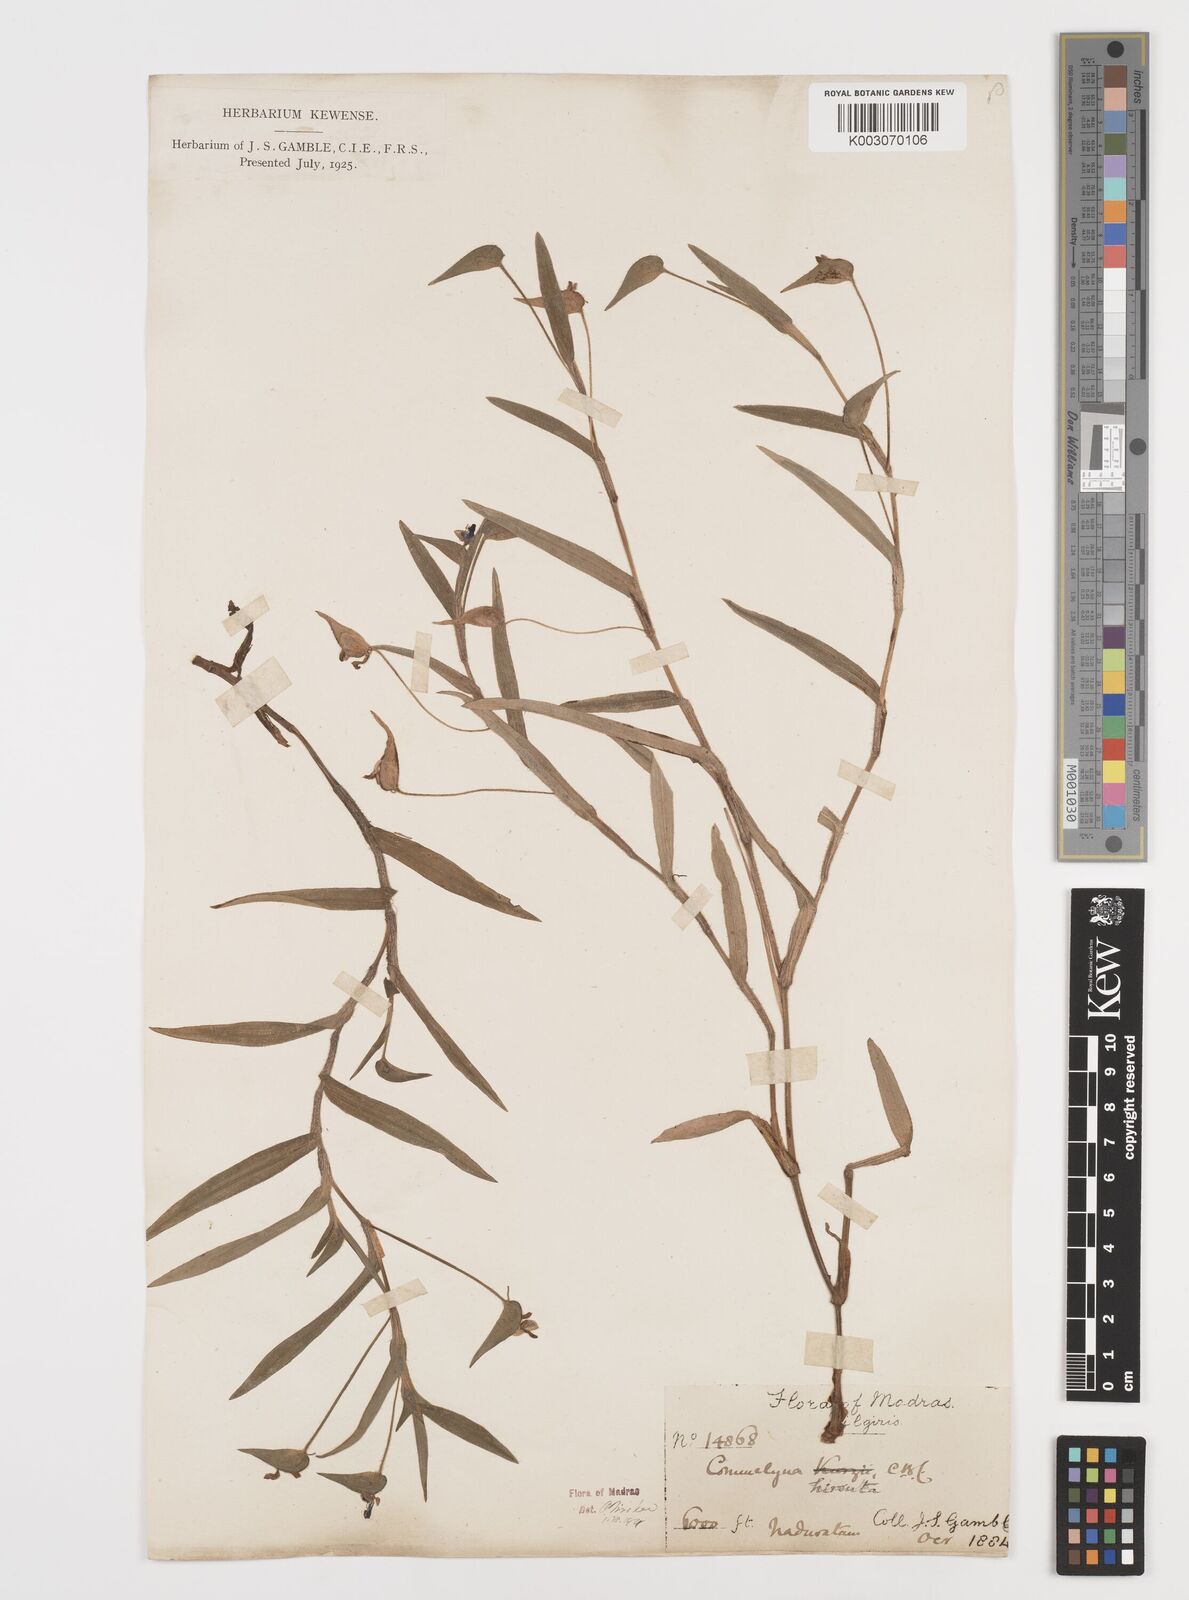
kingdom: Plantae
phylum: Tracheophyta
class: Liliopsida
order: Commelinales
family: Commelinaceae
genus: Commelina
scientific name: Commelina hirsuta
